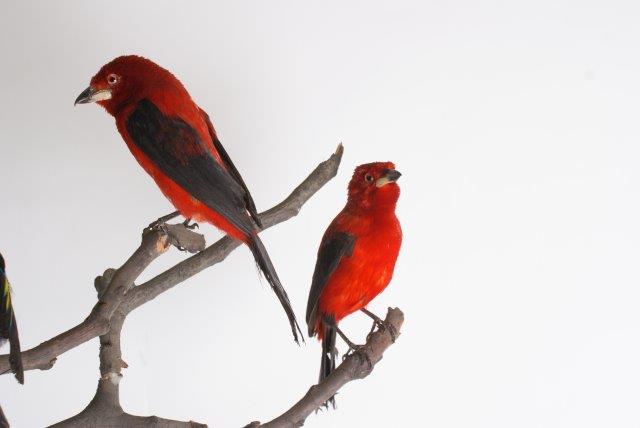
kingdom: Animalia
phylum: Chordata
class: Aves
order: Passeriformes
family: Thraupidae
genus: Ramphocelus
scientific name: Ramphocelus bresilia
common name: Brazilian tanager
